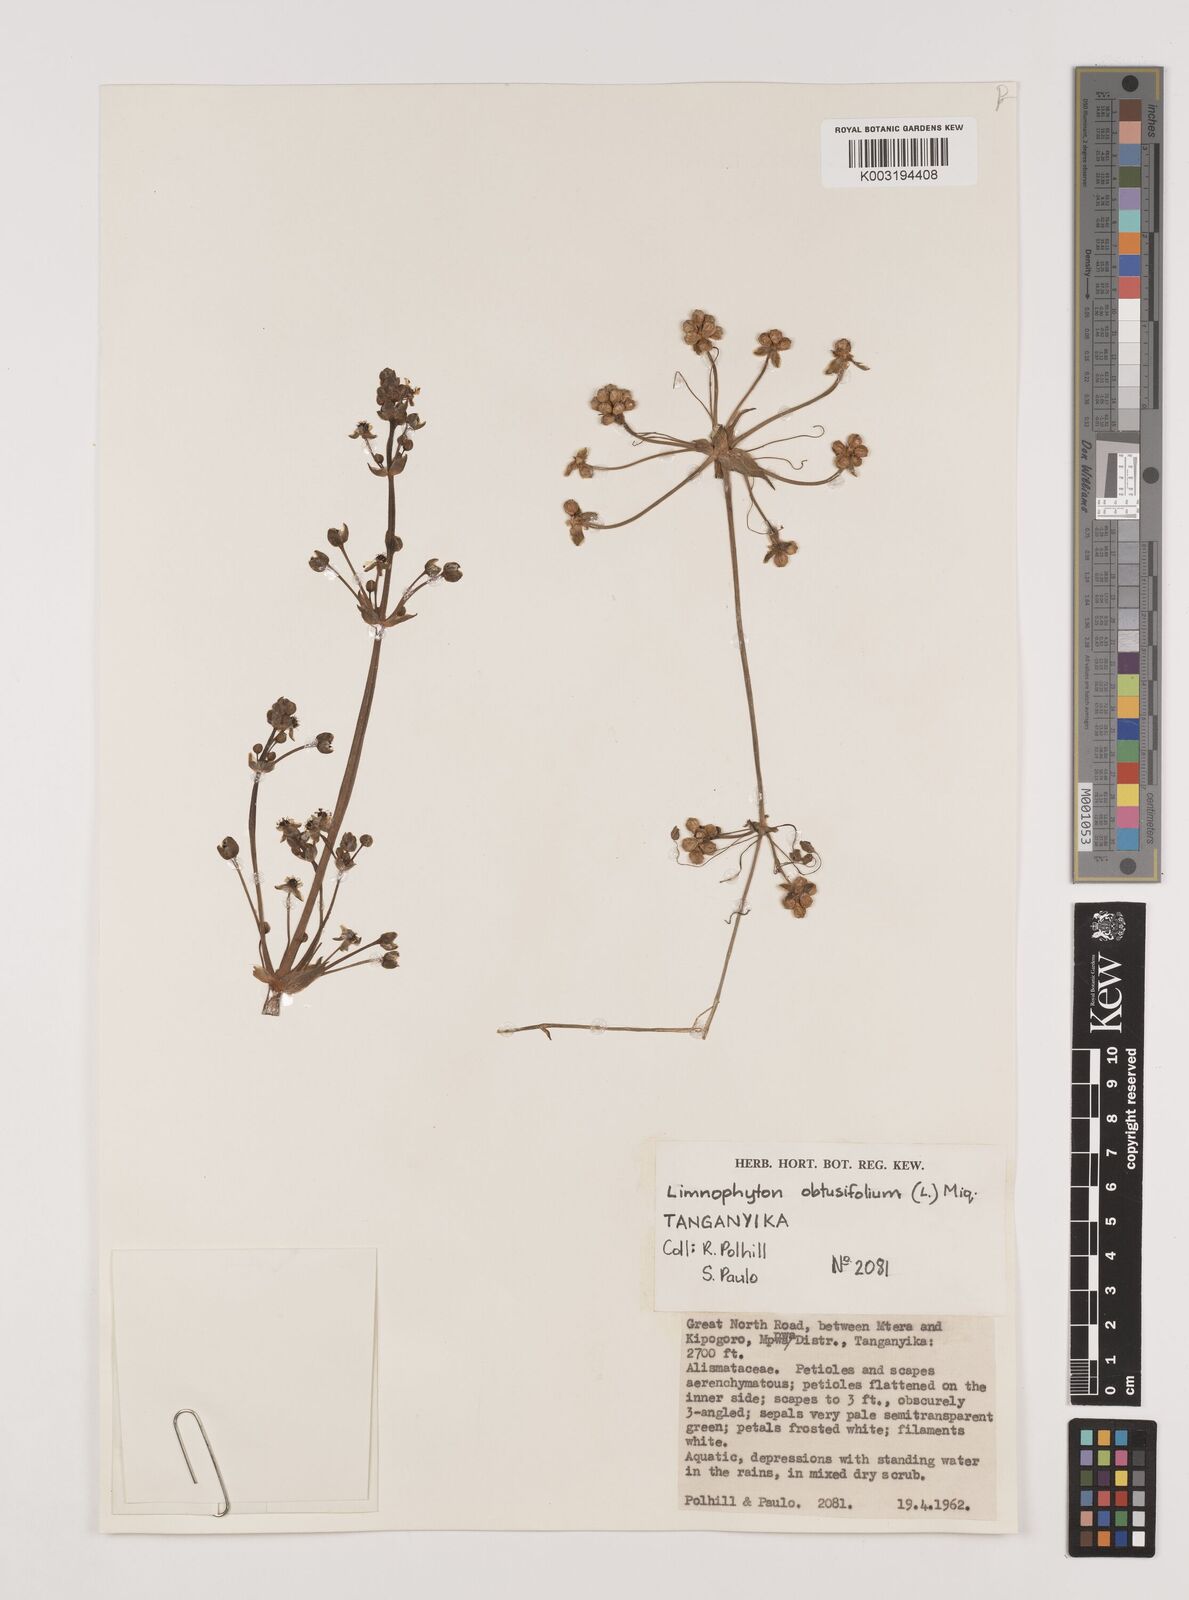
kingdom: Plantae
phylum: Tracheophyta
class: Liliopsida
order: Alismatales
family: Alismataceae
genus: Limnophyton
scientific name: Limnophyton obtusifolium
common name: Arrow head
